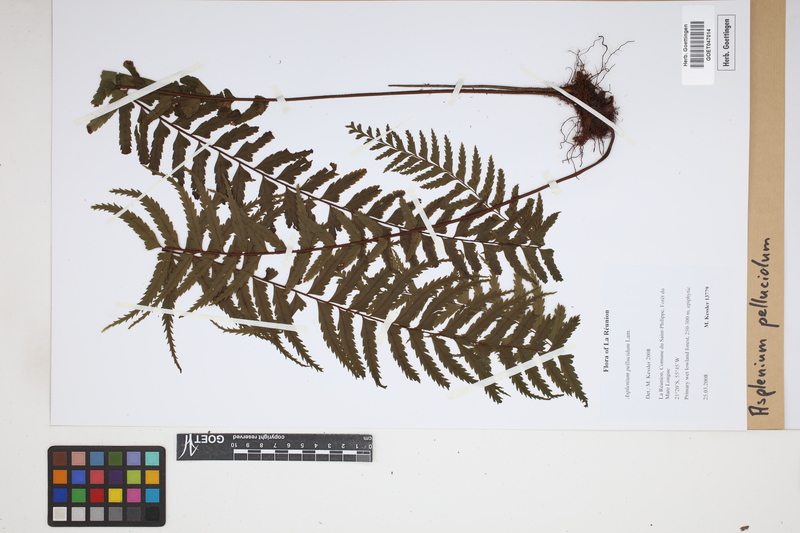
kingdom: Plantae
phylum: Tracheophyta
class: Polypodiopsida
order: Polypodiales
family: Aspleniaceae
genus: Asplenium
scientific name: Asplenium pellucidum
